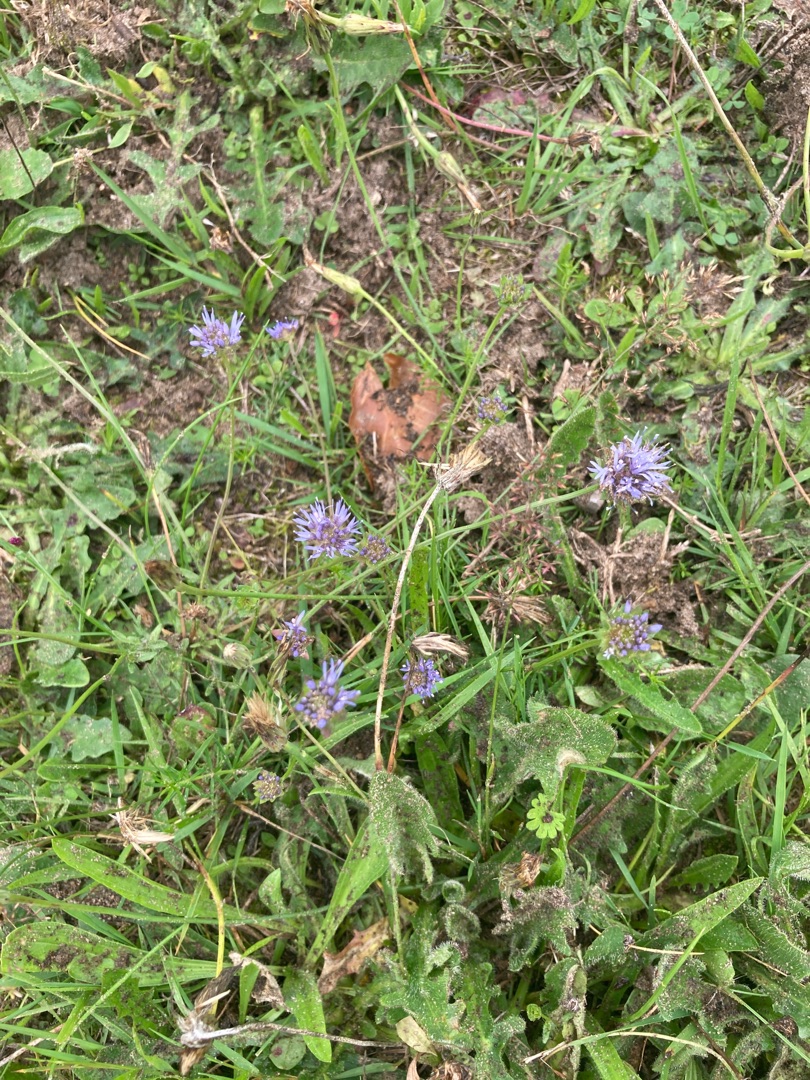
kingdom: Plantae
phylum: Tracheophyta
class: Magnoliopsida
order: Asterales
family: Campanulaceae
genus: Jasione
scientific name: Jasione montana
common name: Blåmunke
